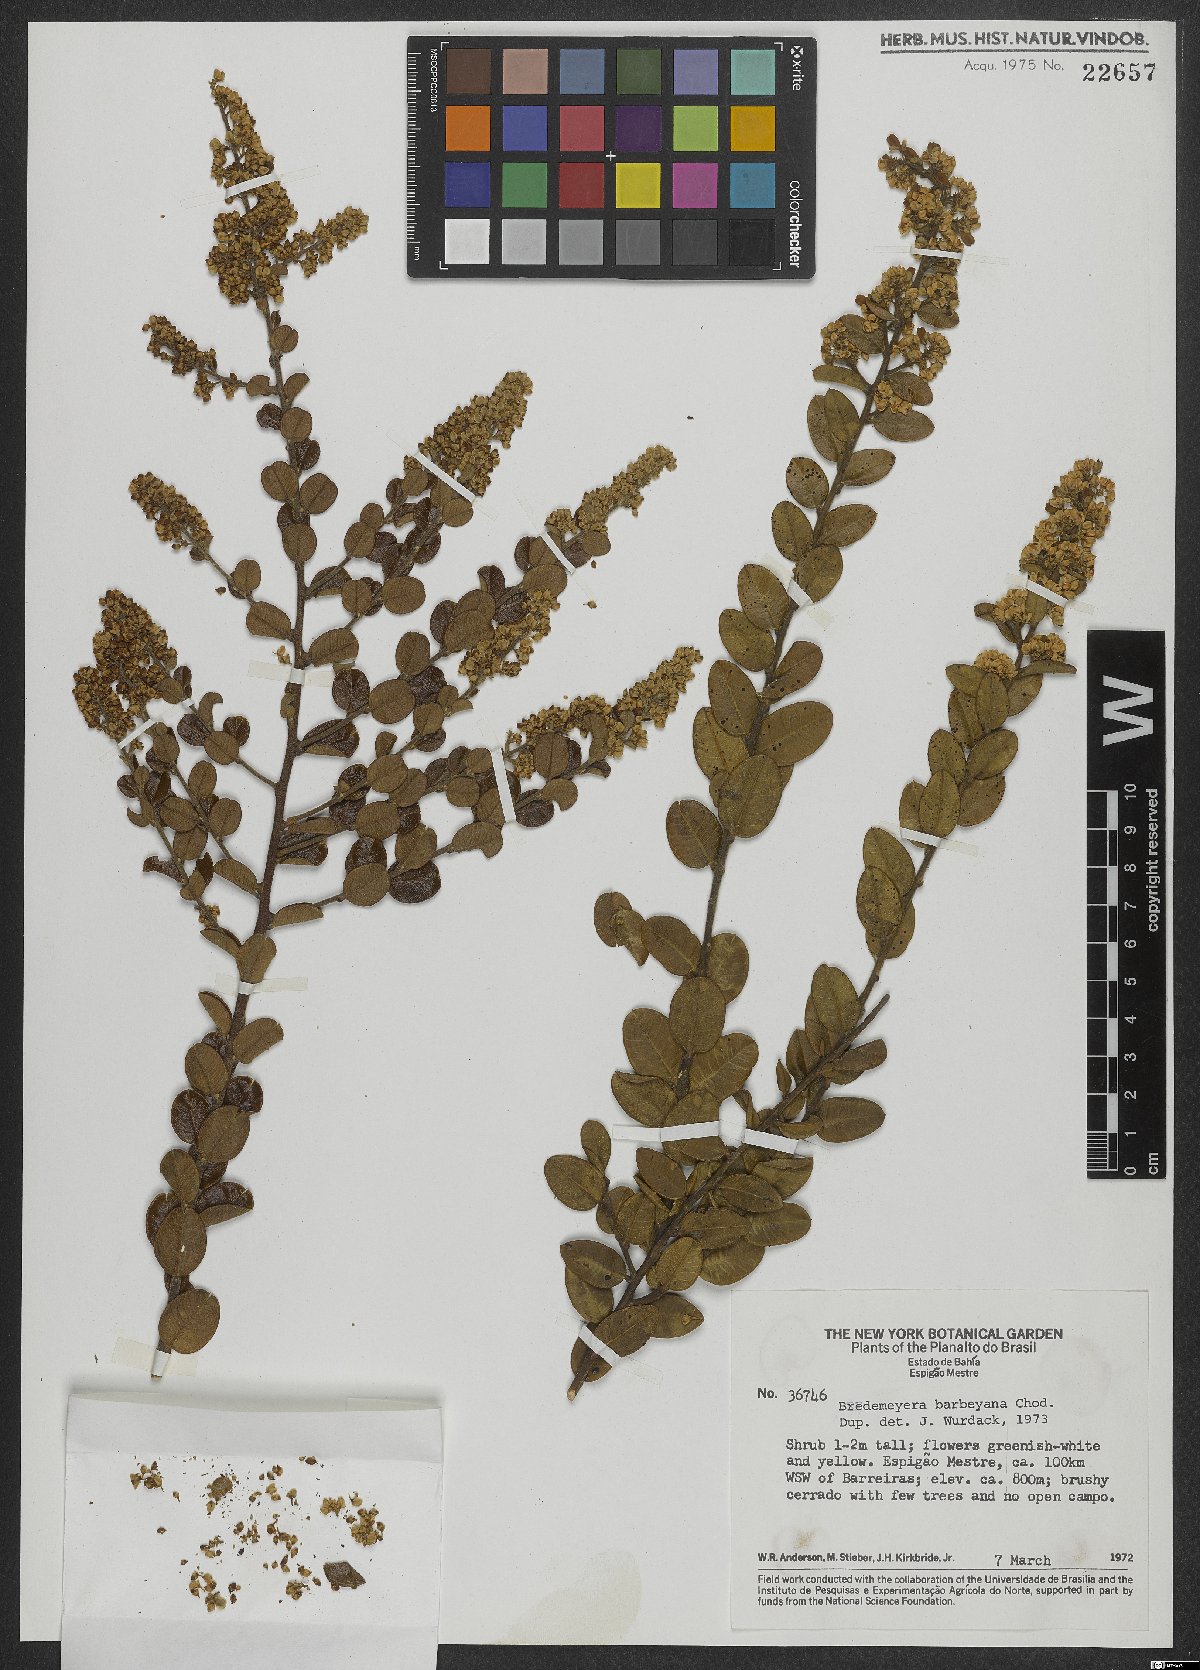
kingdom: Plantae
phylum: Tracheophyta
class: Magnoliopsida
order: Fabales
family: Polygalaceae
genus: Bredemeyera
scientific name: Bredemeyera barbeyana
